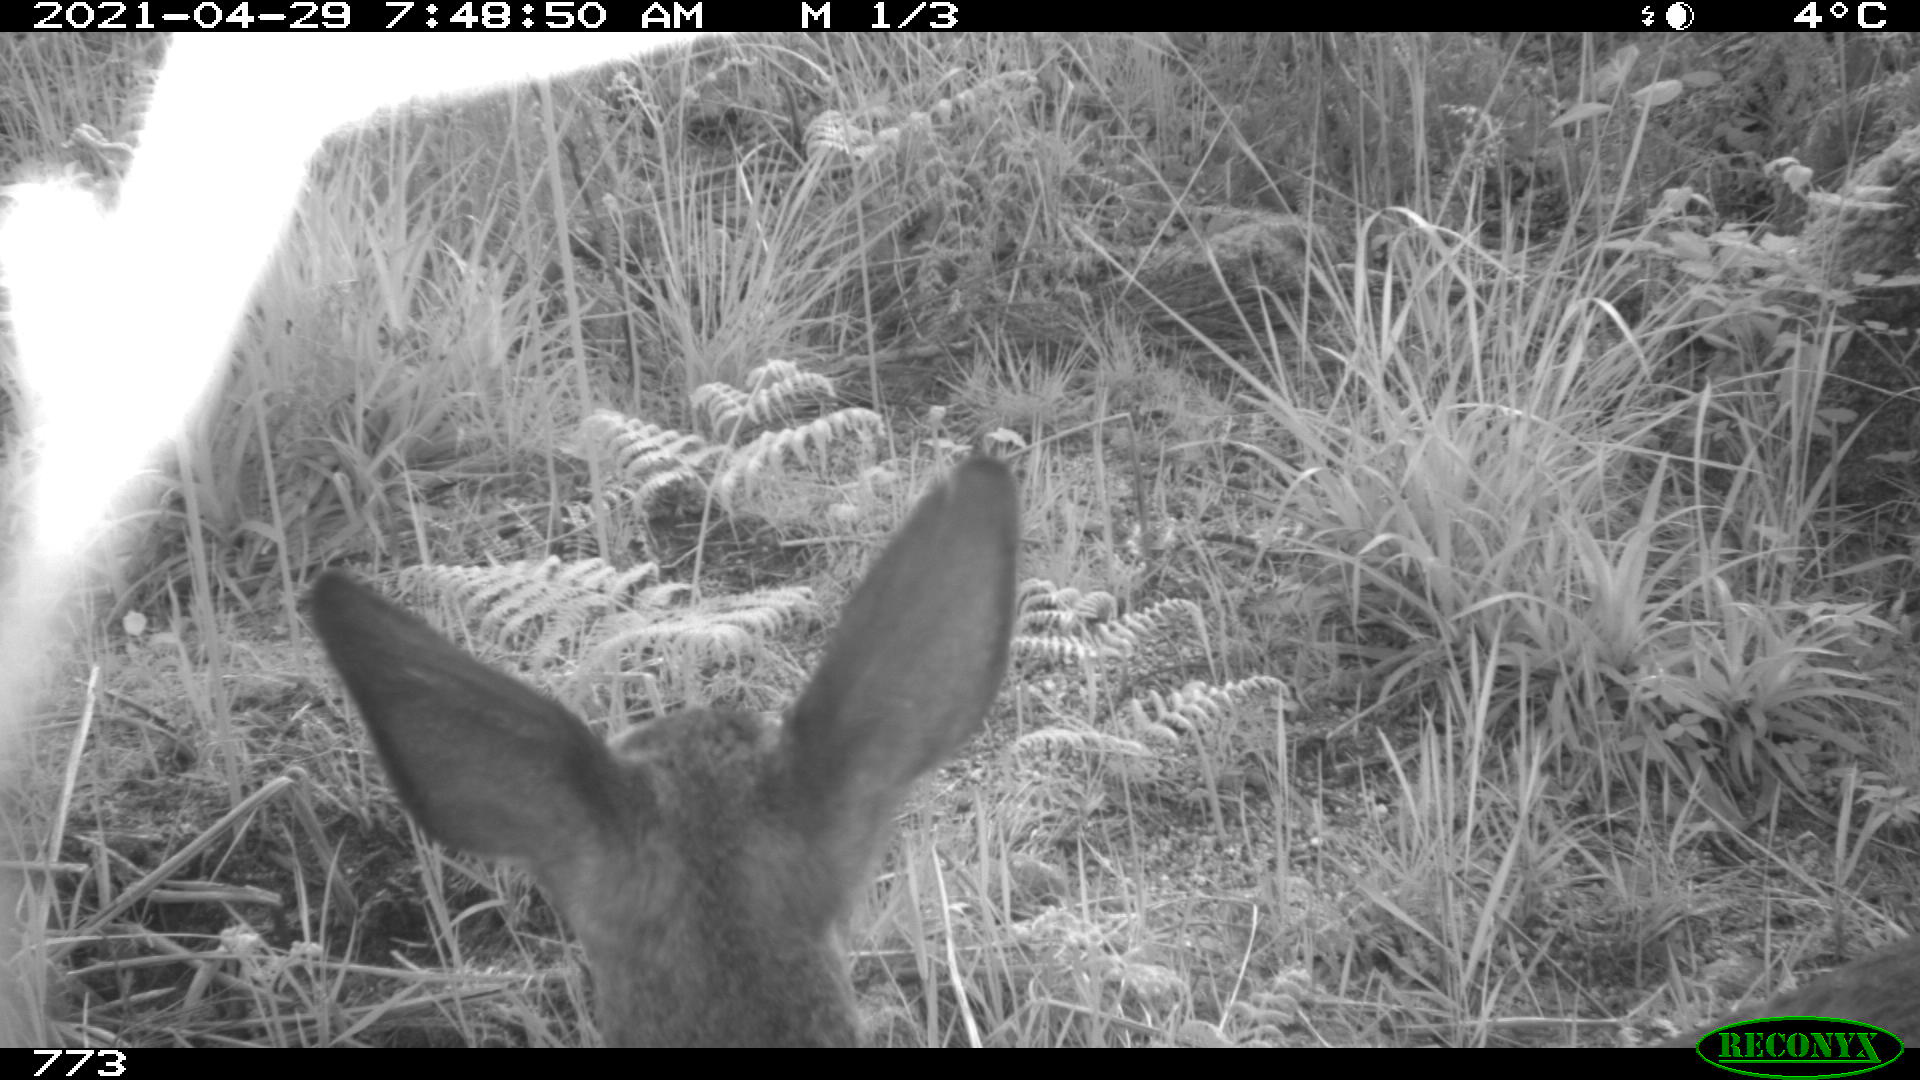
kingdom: Animalia
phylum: Chordata
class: Mammalia
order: Artiodactyla
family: Cervidae
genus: Capreolus
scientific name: Capreolus capreolus
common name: Western roe deer
